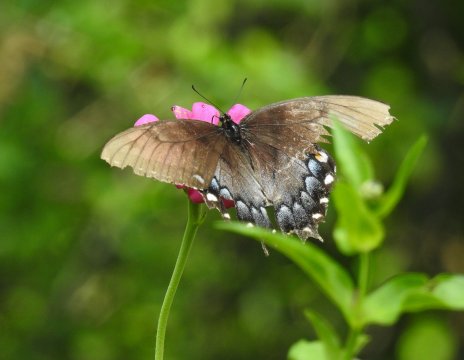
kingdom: Animalia
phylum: Arthropoda
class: Insecta
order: Lepidoptera
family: Papilionidae
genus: Pterourus
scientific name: Pterourus glaucus
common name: Eastern Tiger Swallowtail
